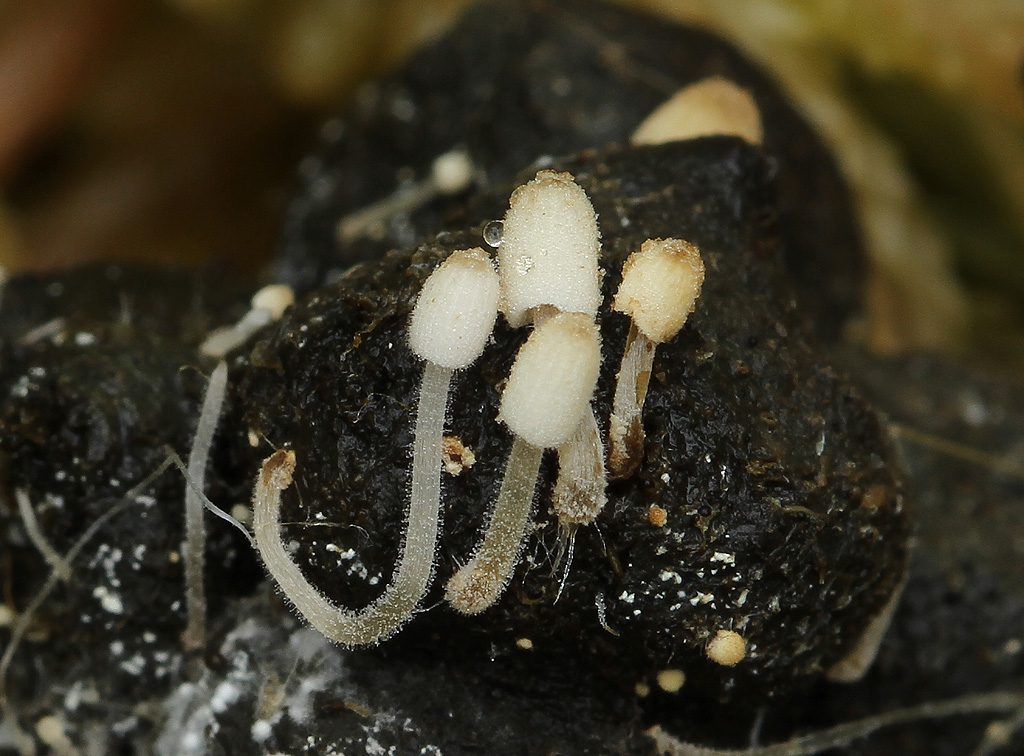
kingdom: Fungi
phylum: Basidiomycota
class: Agaricomycetes
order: Agaricales
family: Psathyrellaceae
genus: Coprinellus
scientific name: Coprinellus pusillulus
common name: lillebitte blækhat
